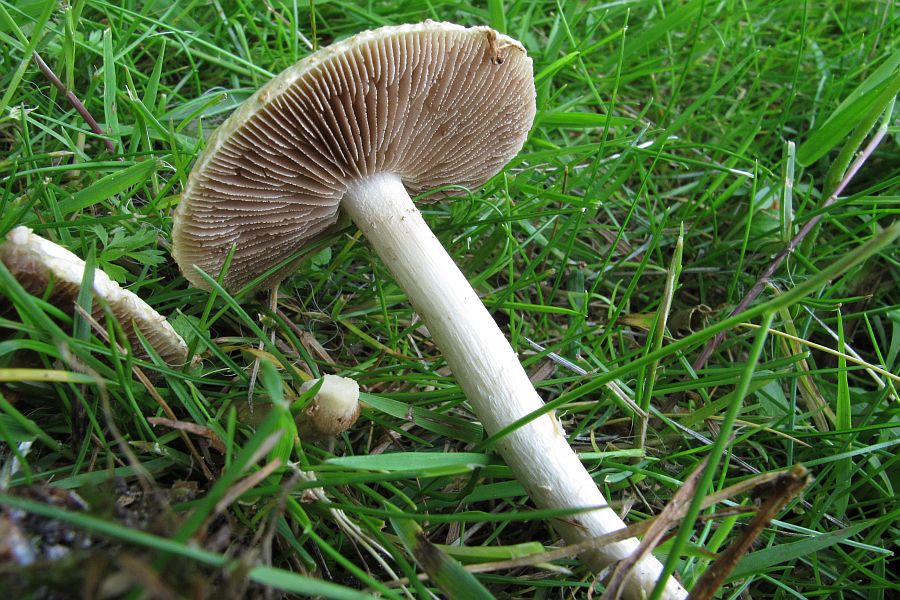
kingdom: Fungi
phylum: Basidiomycota
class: Agaricomycetes
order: Agaricales
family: Strophariaceae
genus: Agrocybe
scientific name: Agrocybe dura
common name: fastkødet agerhat
